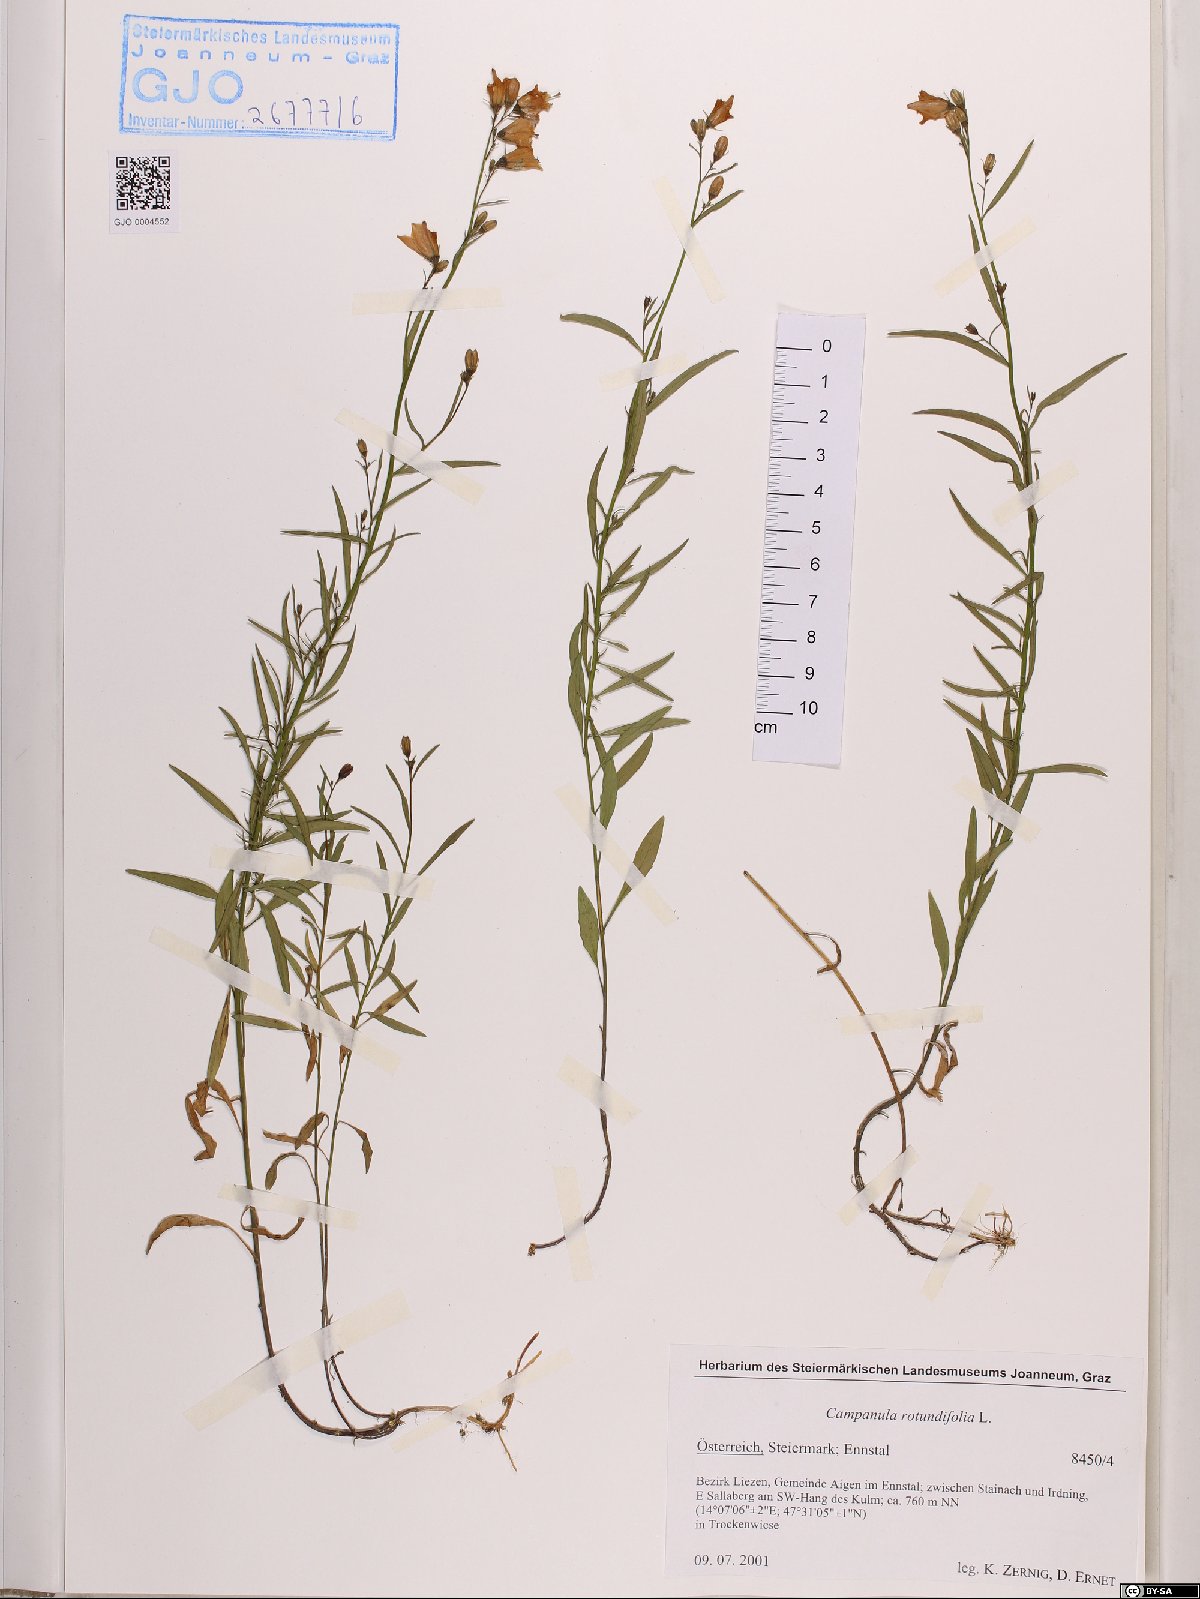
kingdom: Plantae
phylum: Tracheophyta
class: Magnoliopsida
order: Asterales
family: Campanulaceae
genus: Campanula
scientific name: Campanula rotundifolia
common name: Harebell
